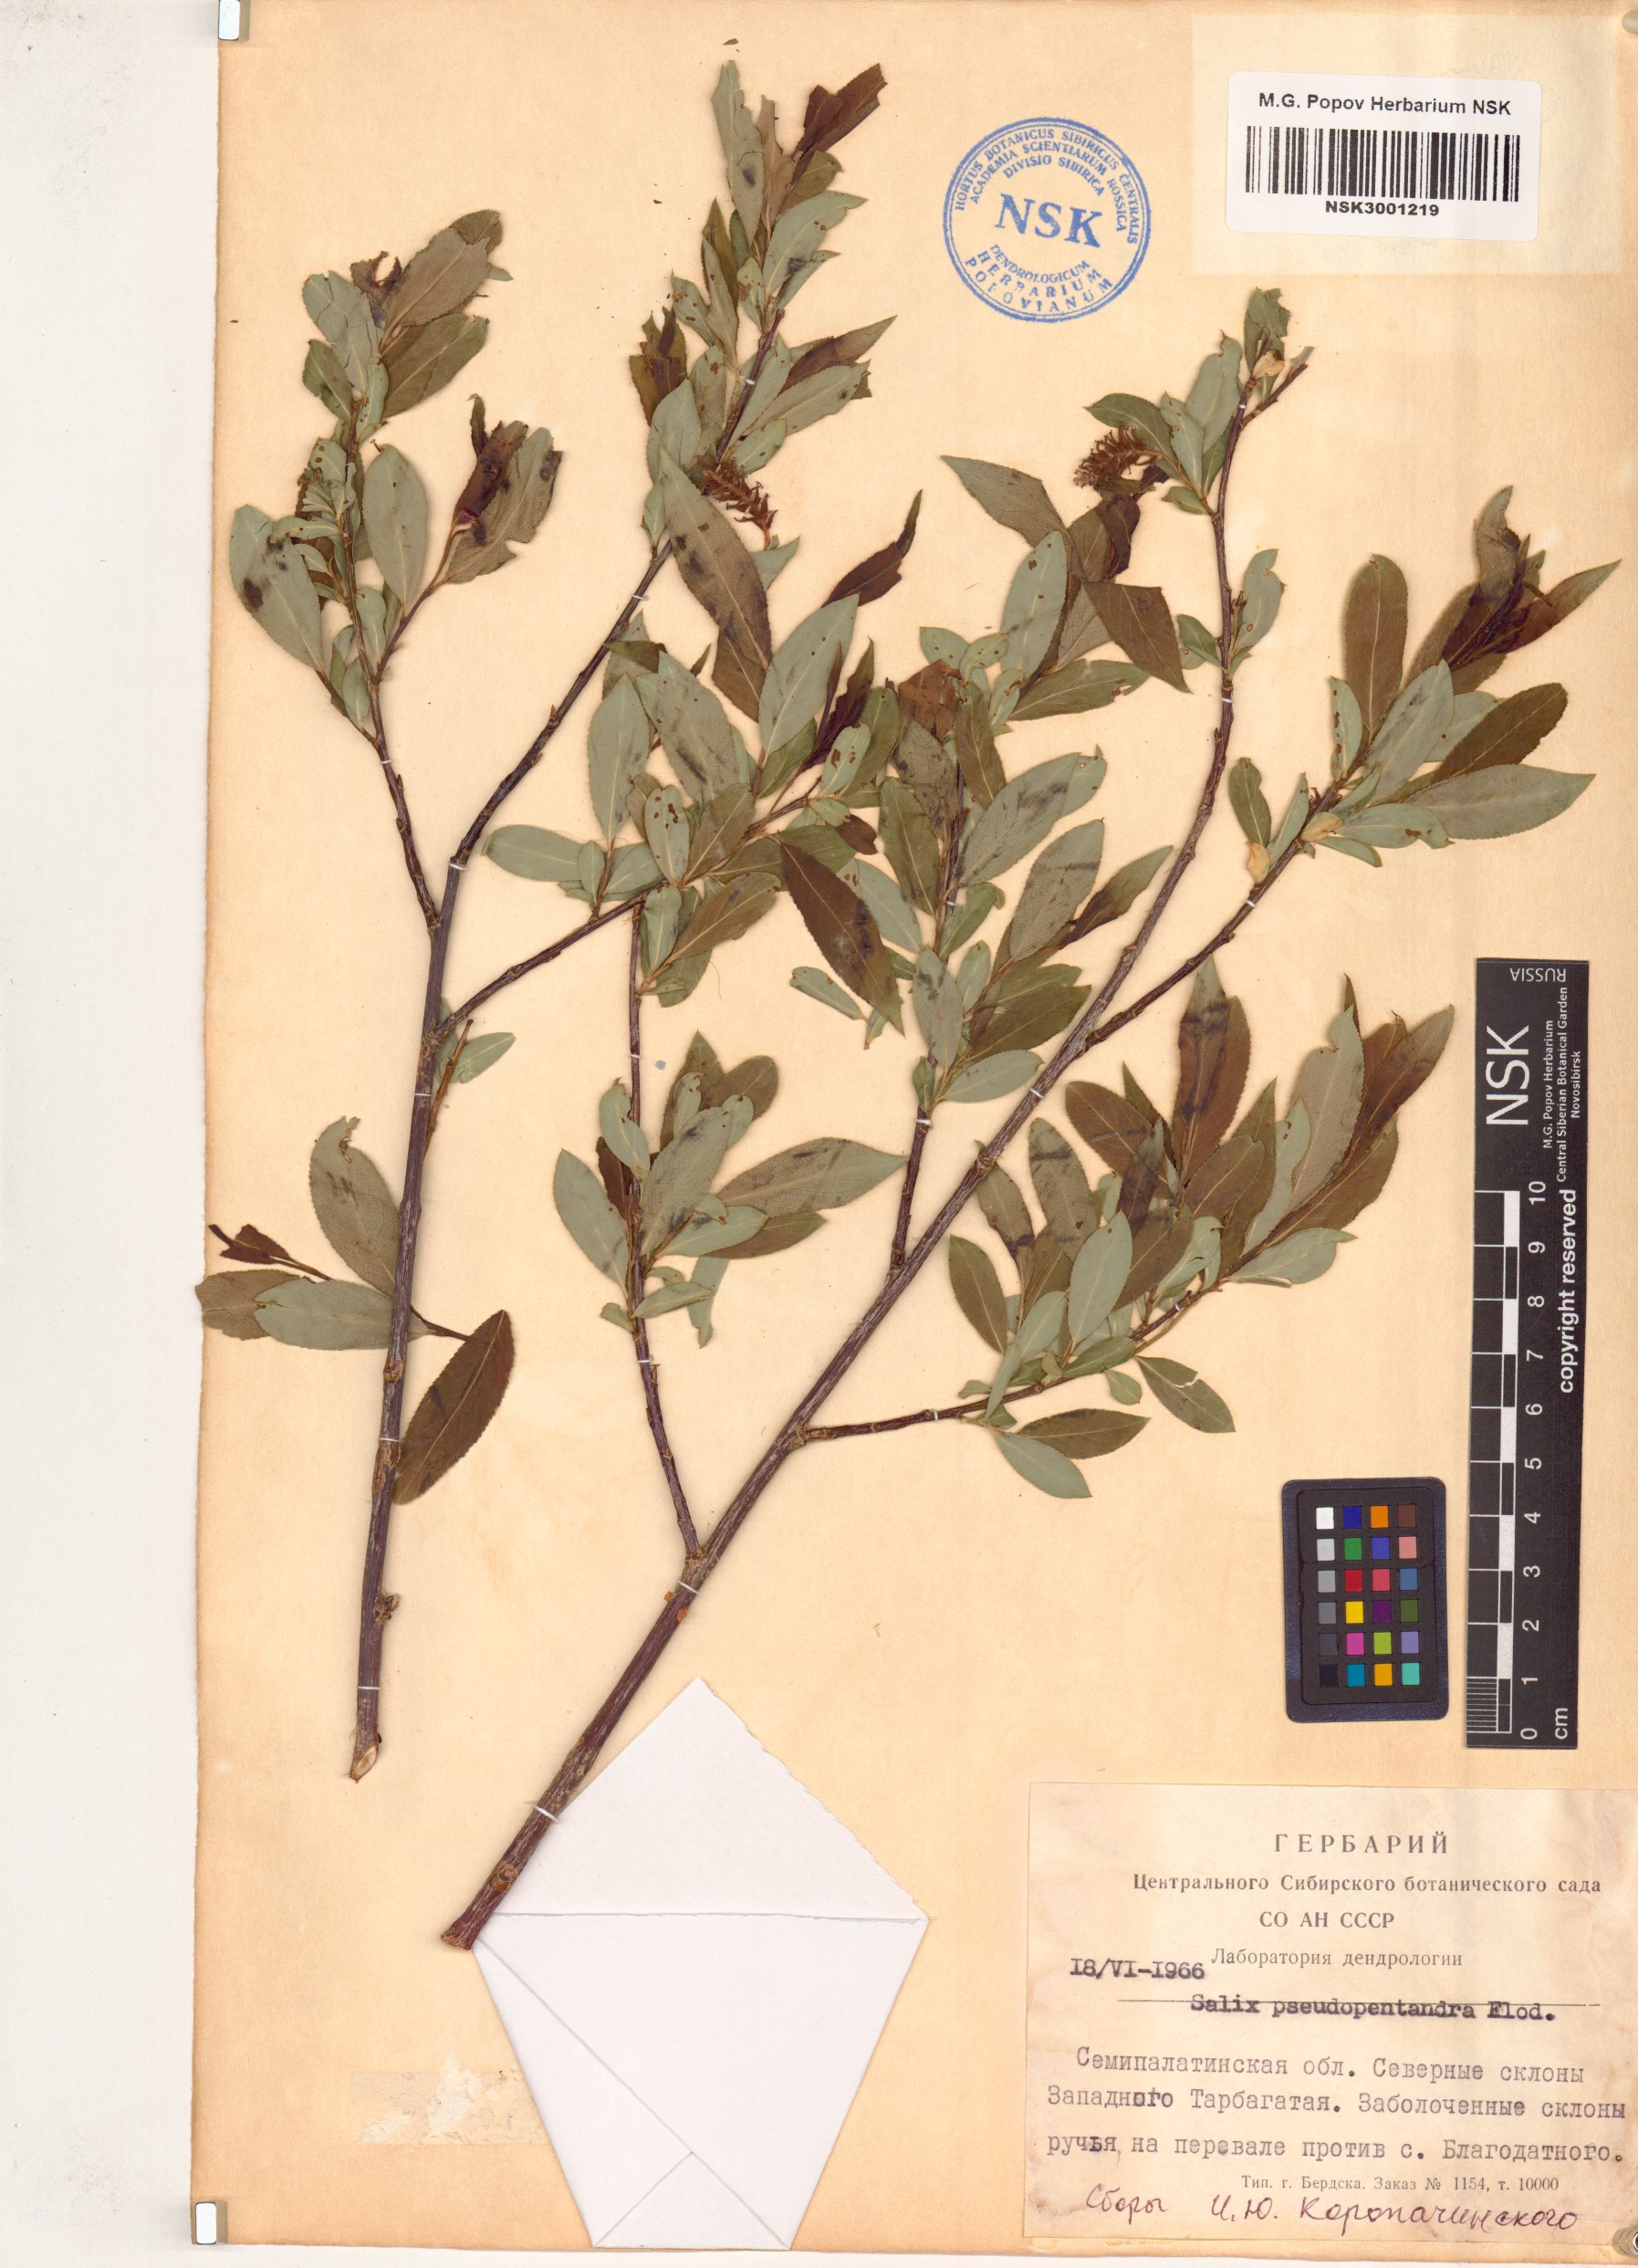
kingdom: Plantae
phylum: Tracheophyta
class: Magnoliopsida
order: Malpighiales
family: Salicaceae
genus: Salix
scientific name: Salix pseudopentandra
